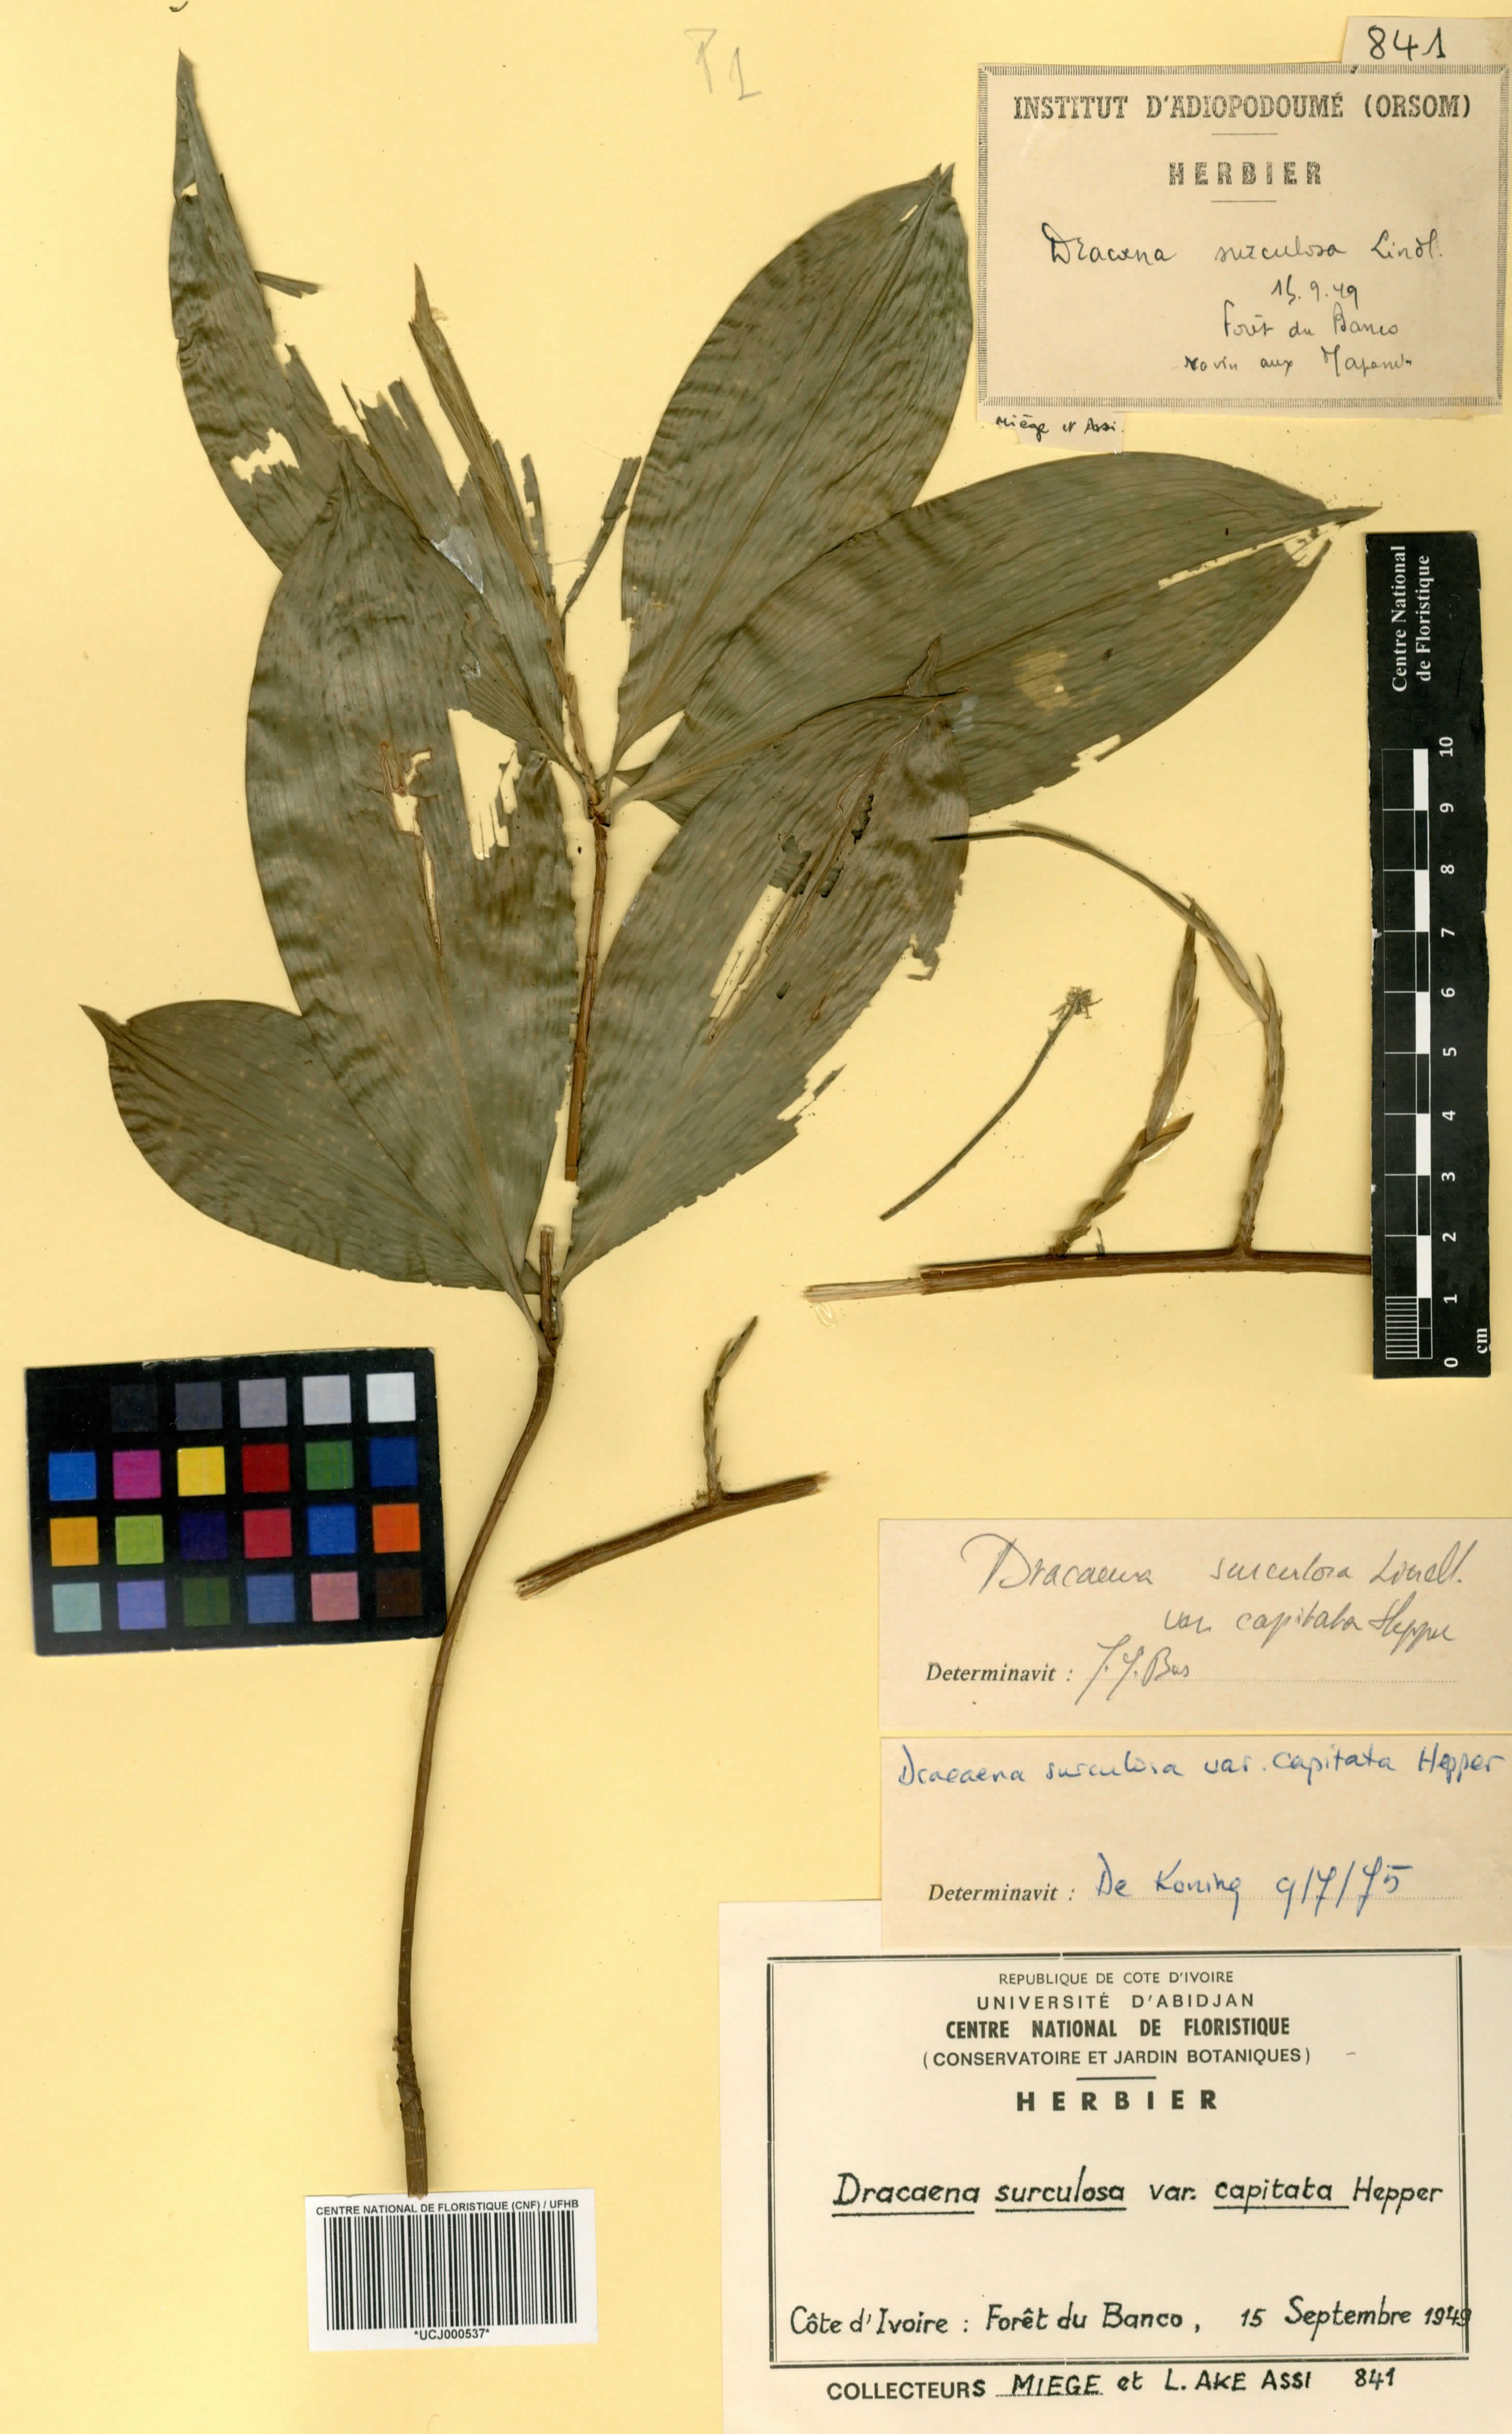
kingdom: Plantae
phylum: Tracheophyta
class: Liliopsida
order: Asparagales
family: Asparagaceae
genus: Dracaena
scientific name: Dracaena surculosa
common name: Spotted dracaena
